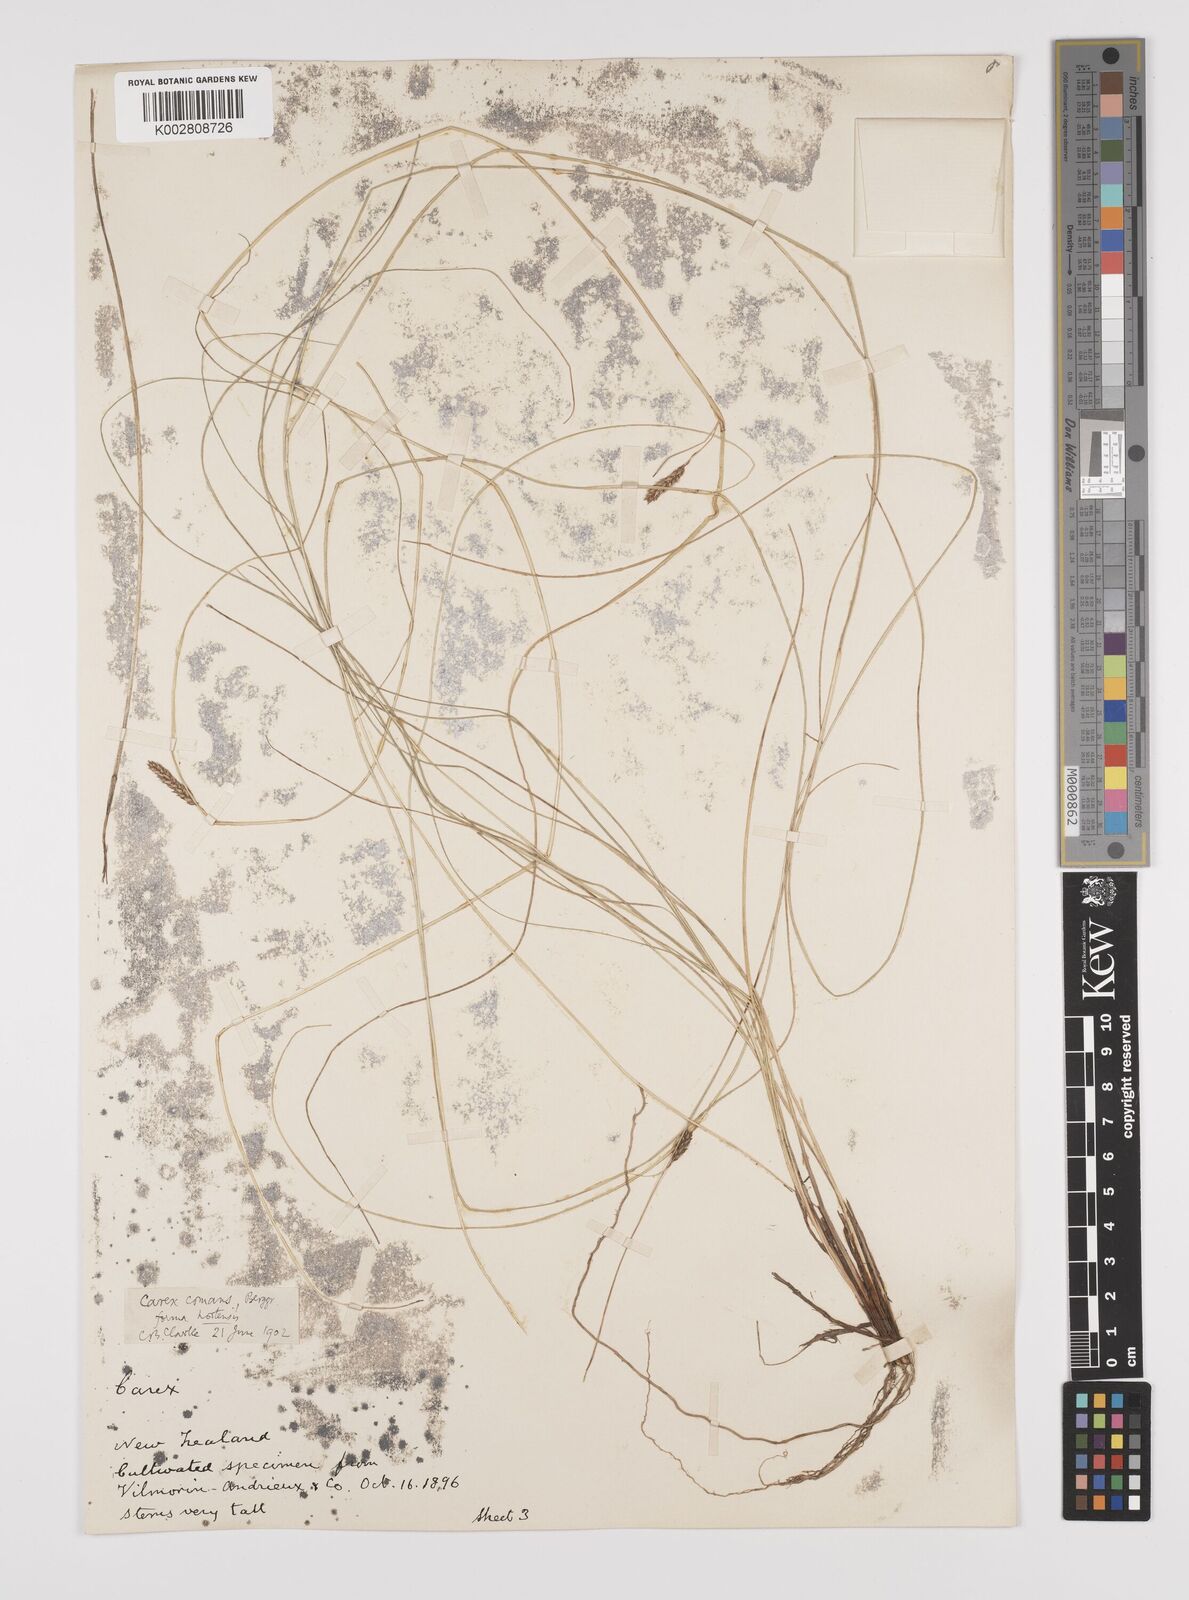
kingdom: Plantae
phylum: Tracheophyta
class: Liliopsida
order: Poales
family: Cyperaceae
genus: Carex
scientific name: Carex comans
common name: Longwood tussock
